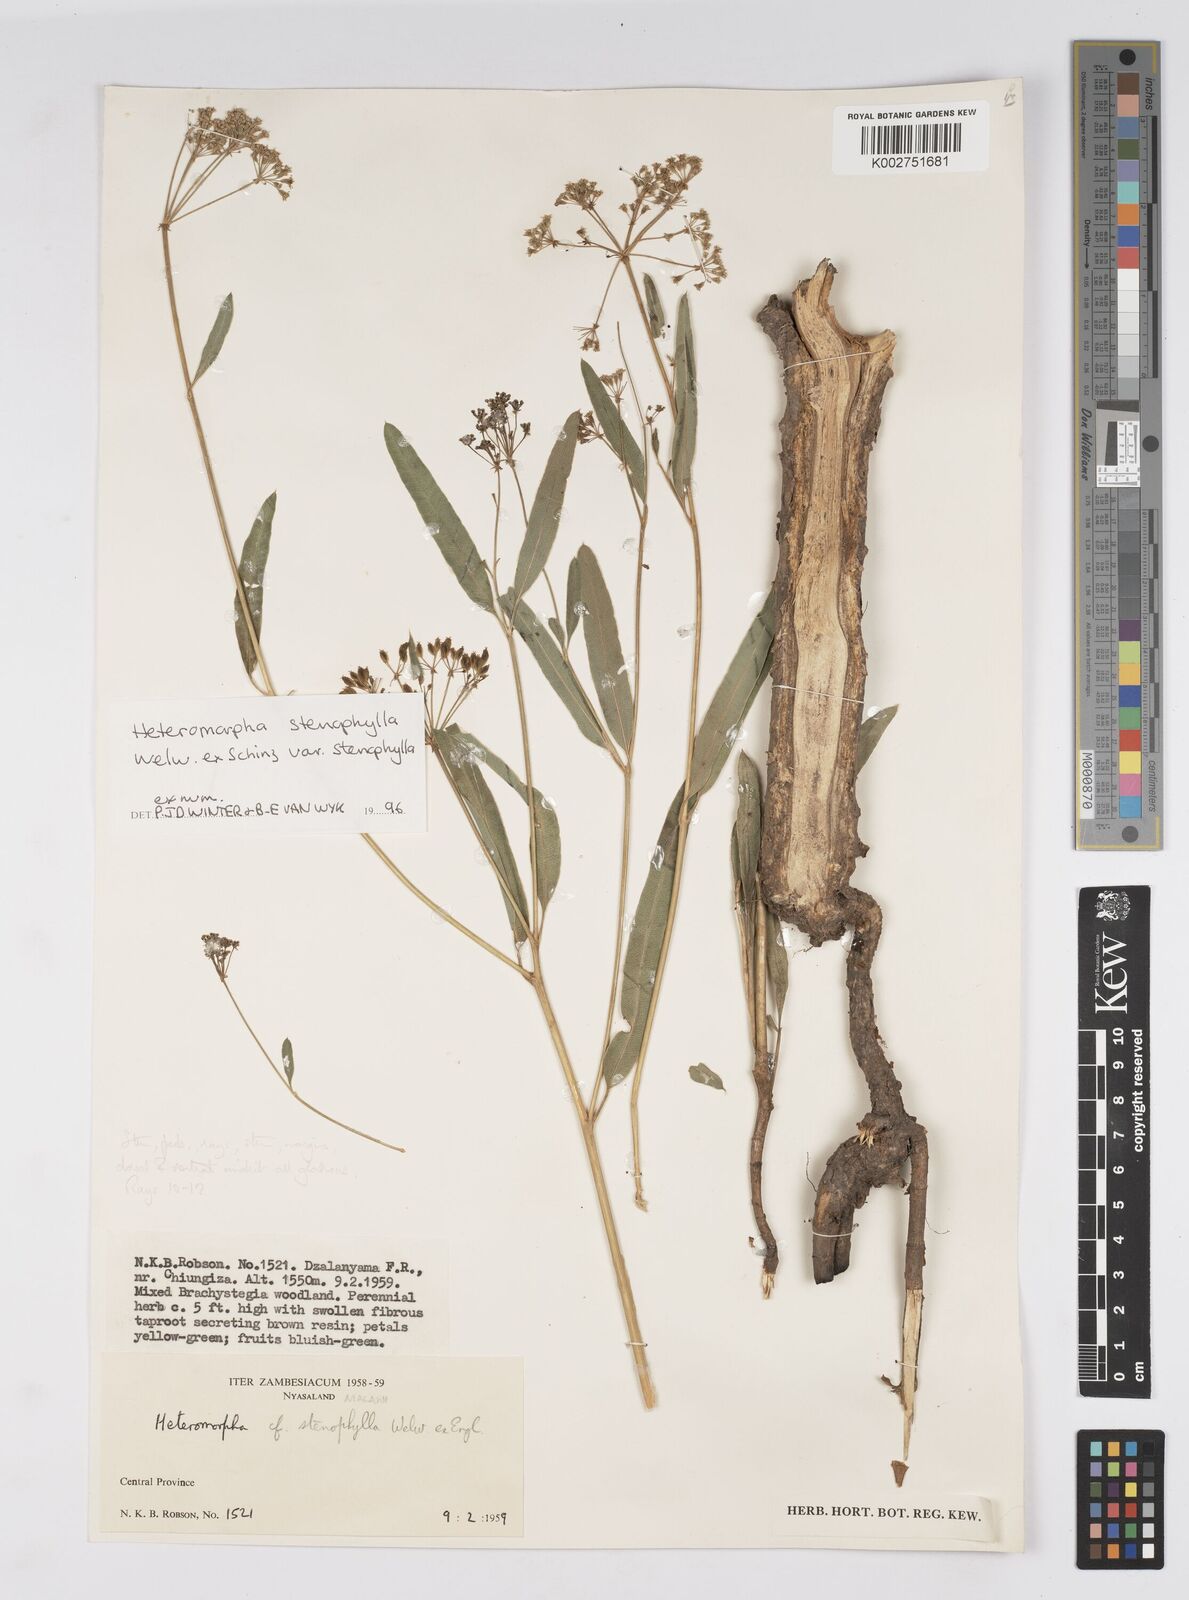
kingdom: Plantae
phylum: Tracheophyta
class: Magnoliopsida
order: Apiales
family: Apiaceae
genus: Heteromorpha
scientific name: Heteromorpha stenophylla
